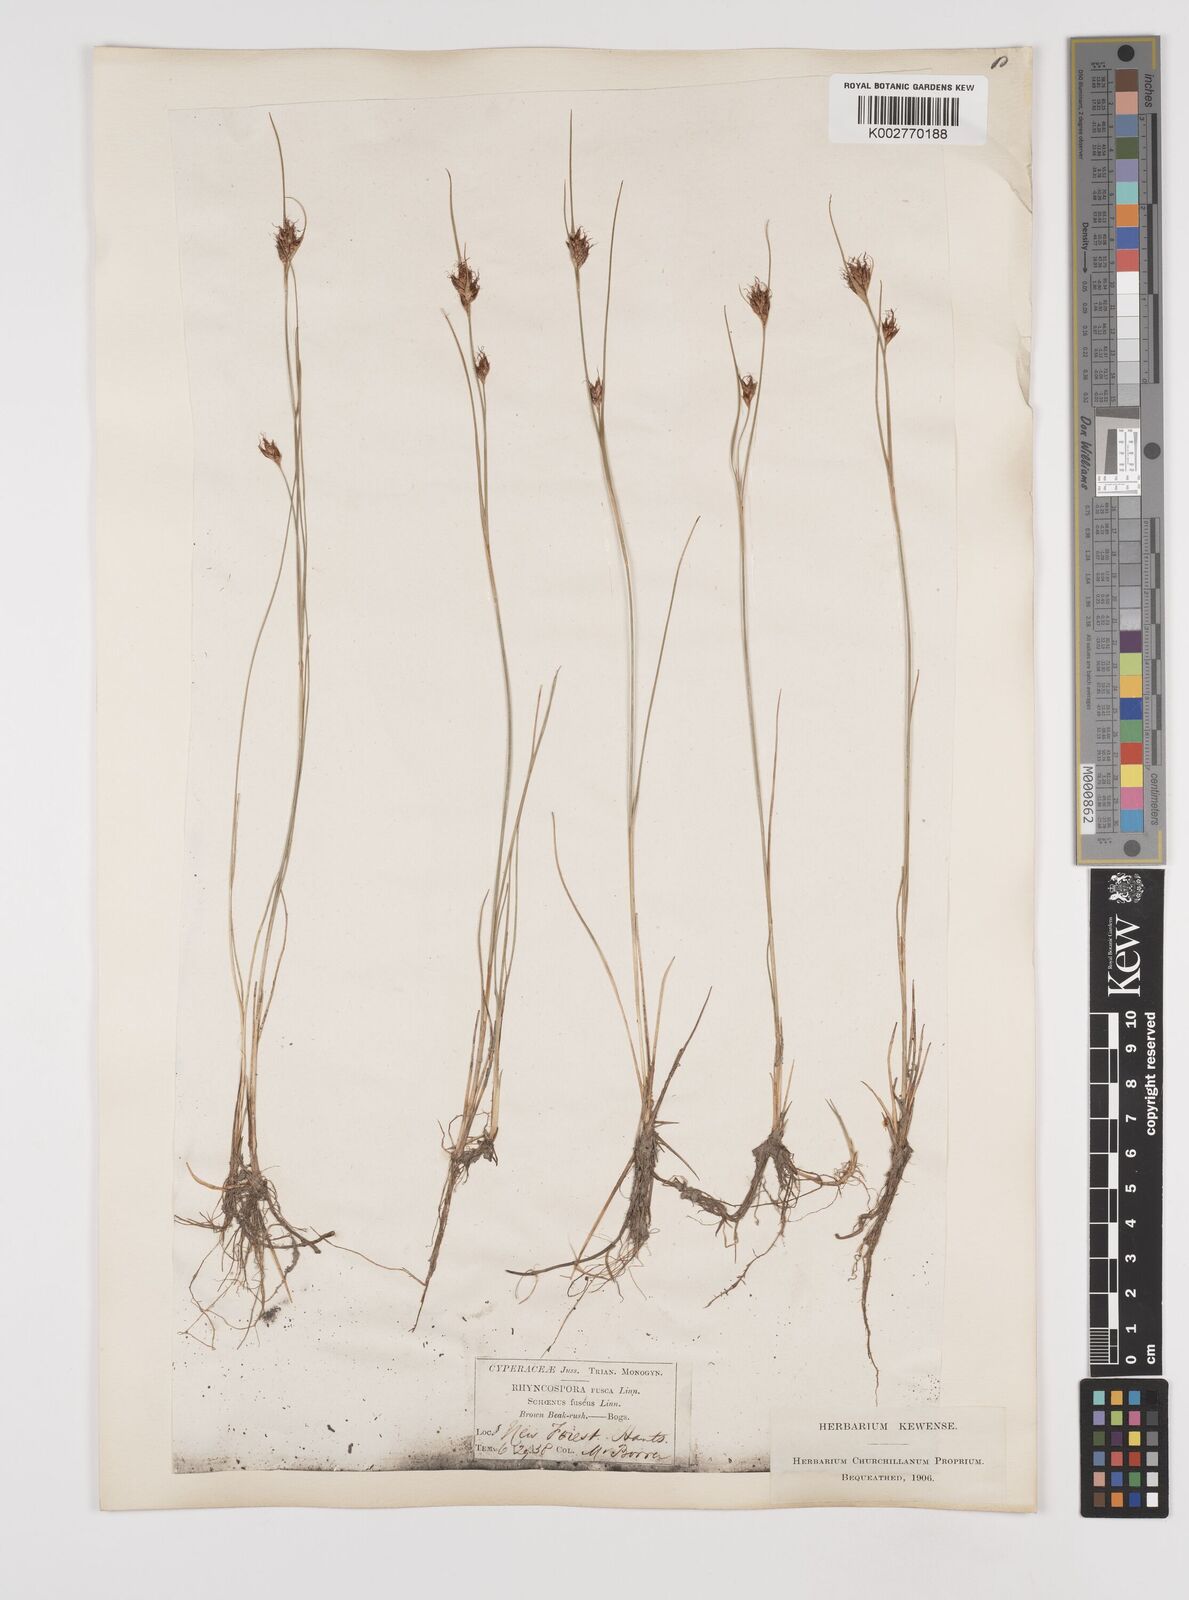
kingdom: Plantae
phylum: Tracheophyta
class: Liliopsida
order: Poales
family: Cyperaceae
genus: Rhynchospora
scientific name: Rhynchospora fusca
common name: Brown beak-sedge
